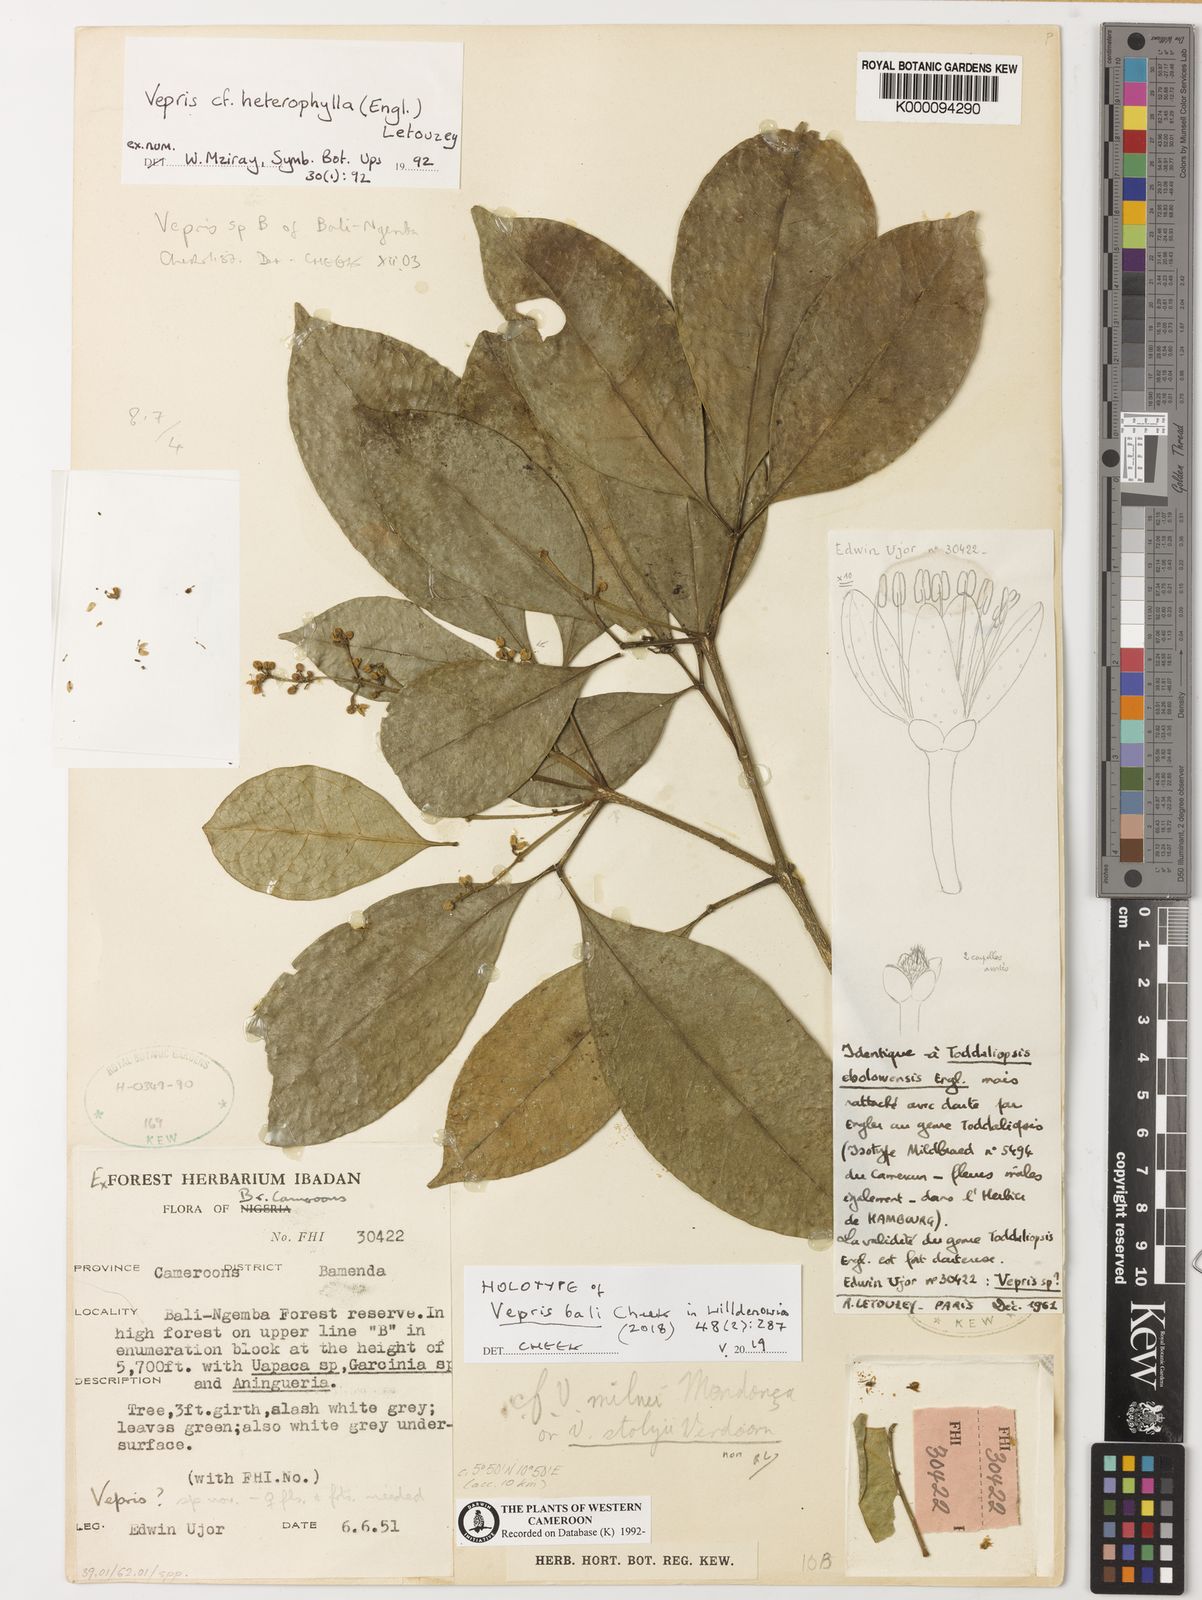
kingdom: Plantae
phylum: Tracheophyta
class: Magnoliopsida
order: Sapindales
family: Rutaceae
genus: Vepris
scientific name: Vepris
